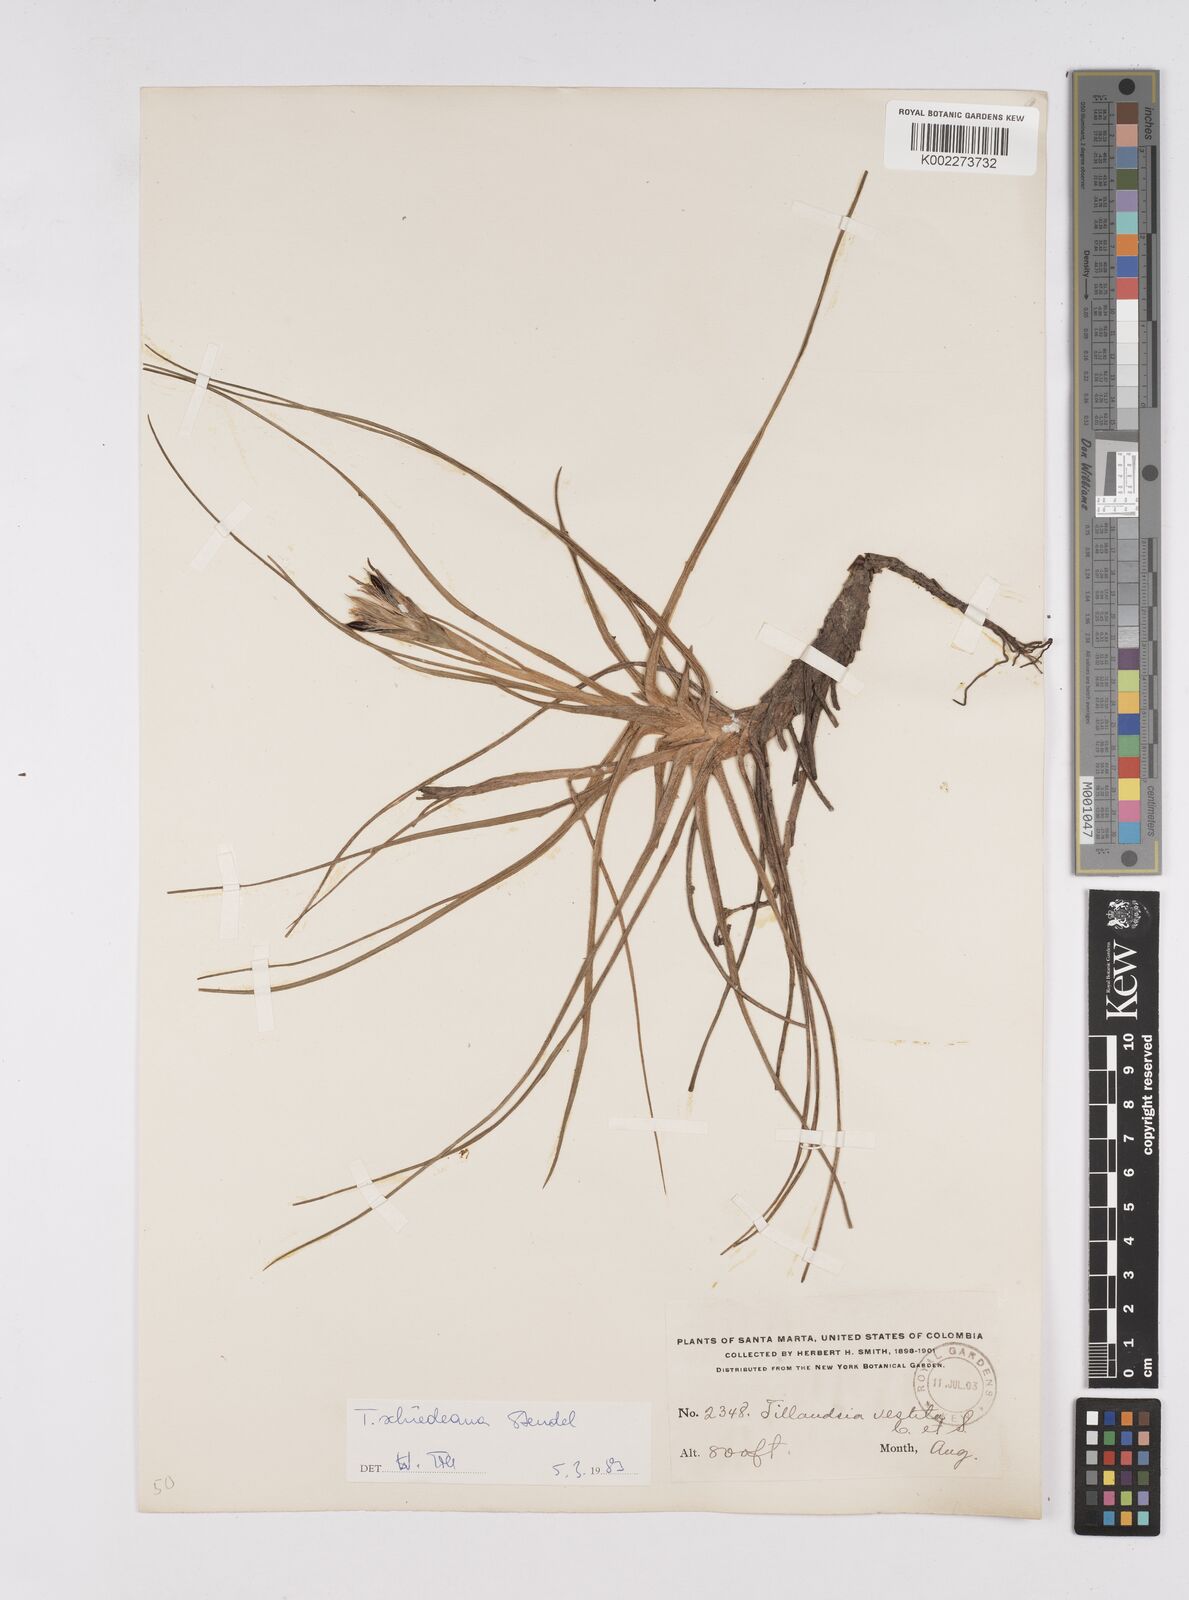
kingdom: Plantae
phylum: Tracheophyta
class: Liliopsida
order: Poales
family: Bromeliaceae
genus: Tillandsia
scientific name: Tillandsia schiedeana
